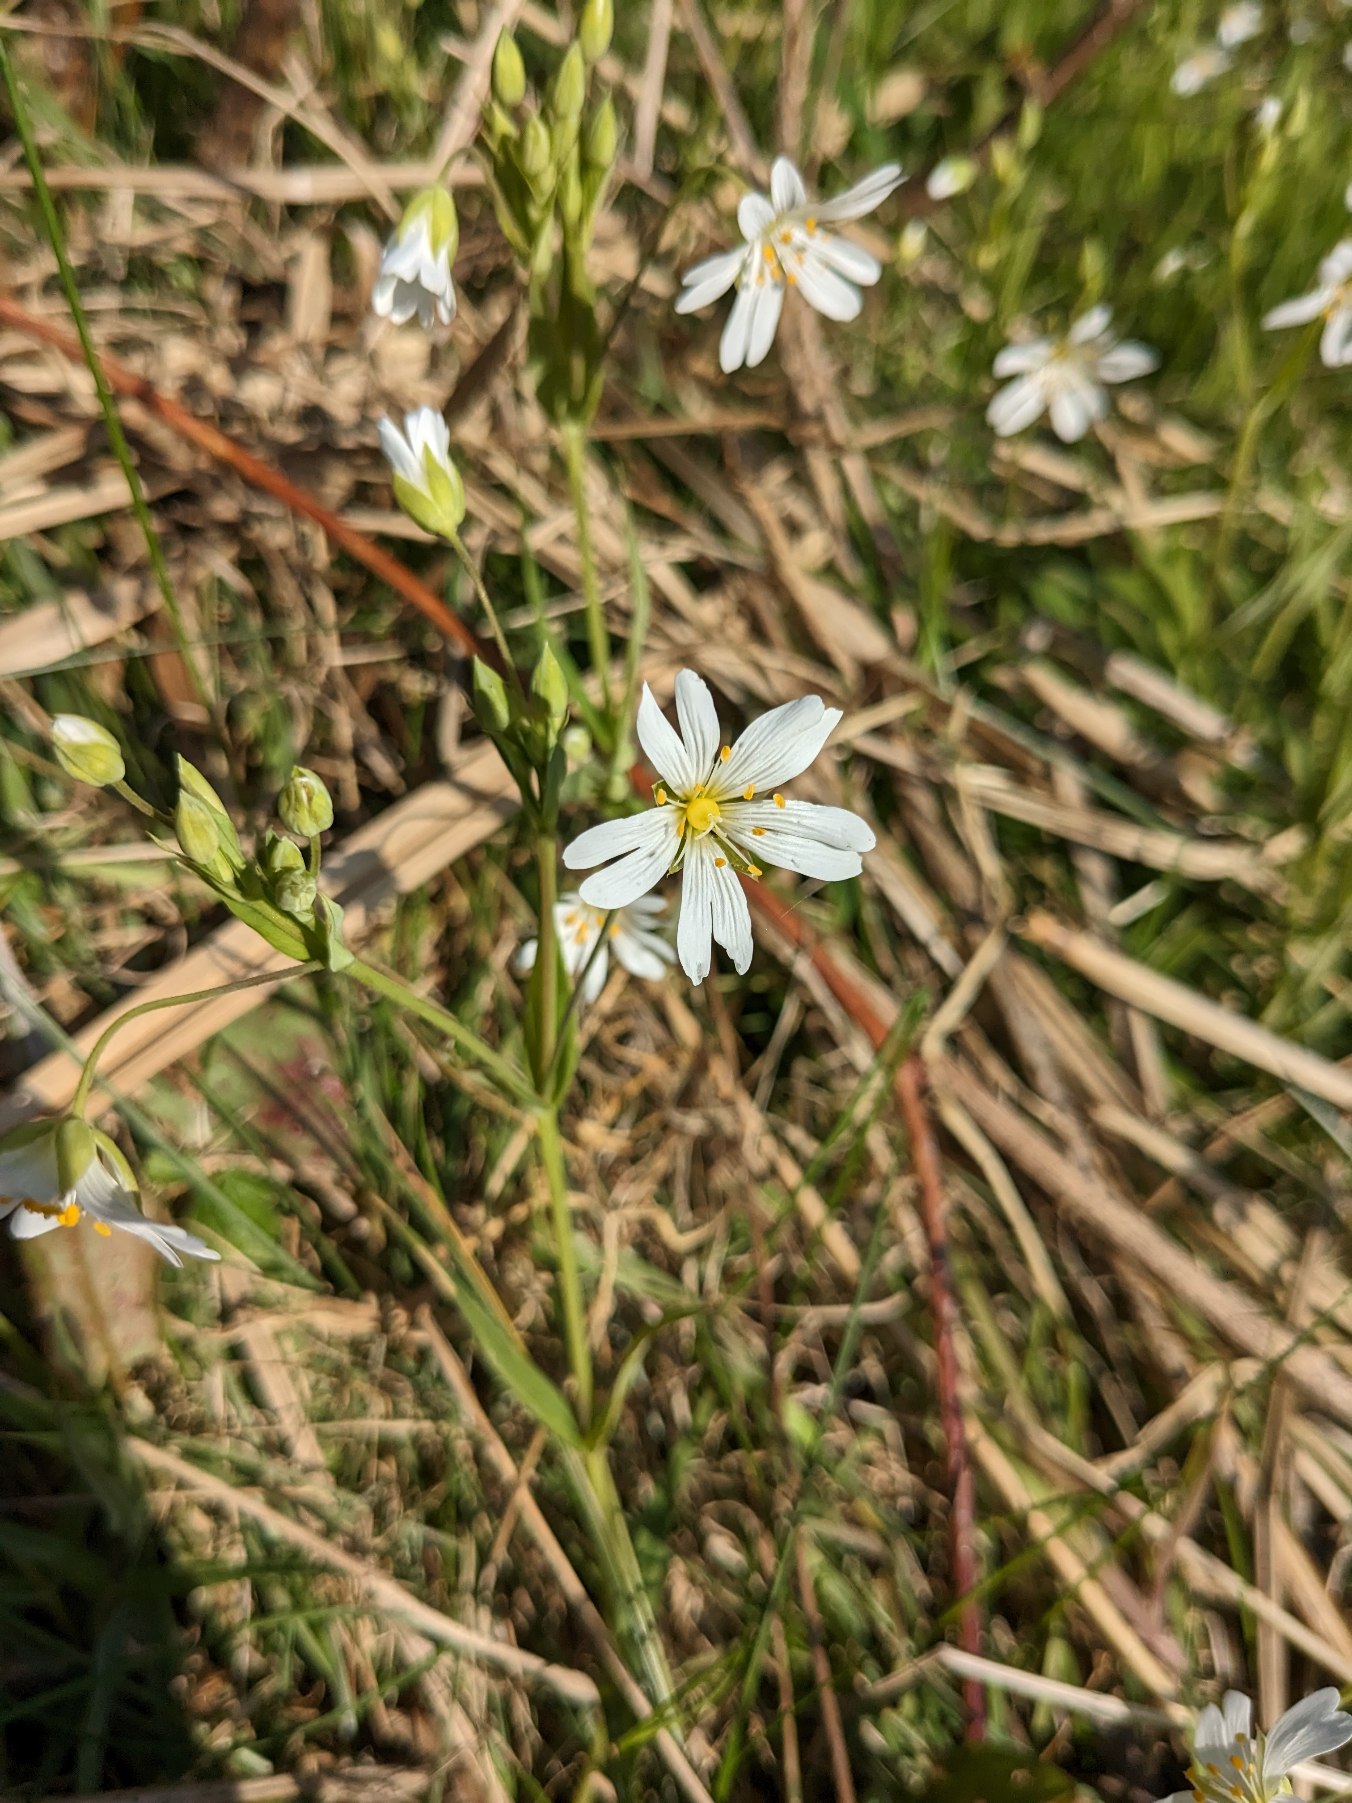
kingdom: Plantae
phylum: Tracheophyta
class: Magnoliopsida
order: Caryophyllales
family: Caryophyllaceae
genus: Rabelera
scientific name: Rabelera holostea
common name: Stor fladstjerne
